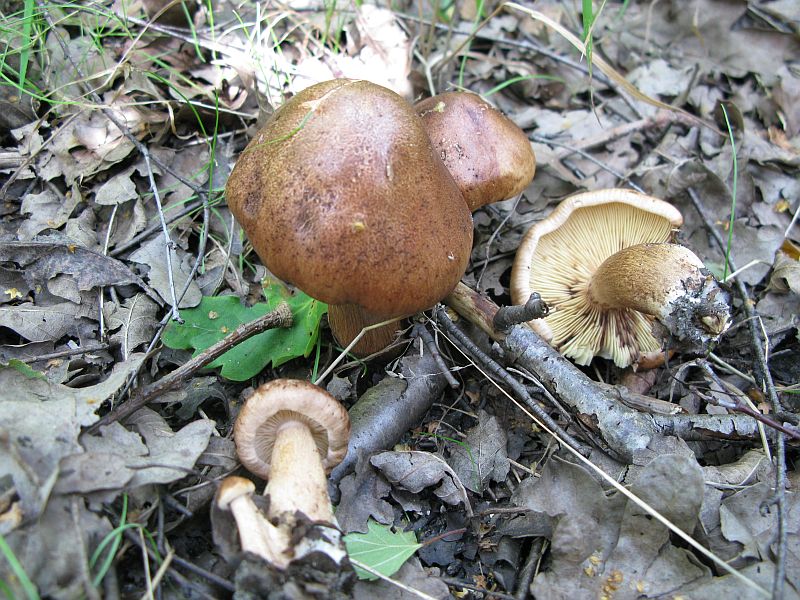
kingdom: Fungi
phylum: Basidiomycota
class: Agaricomycetes
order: Agaricales
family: Tricholomataceae
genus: Tricholoma
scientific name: Tricholoma fulvum
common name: birke-ridderhat
